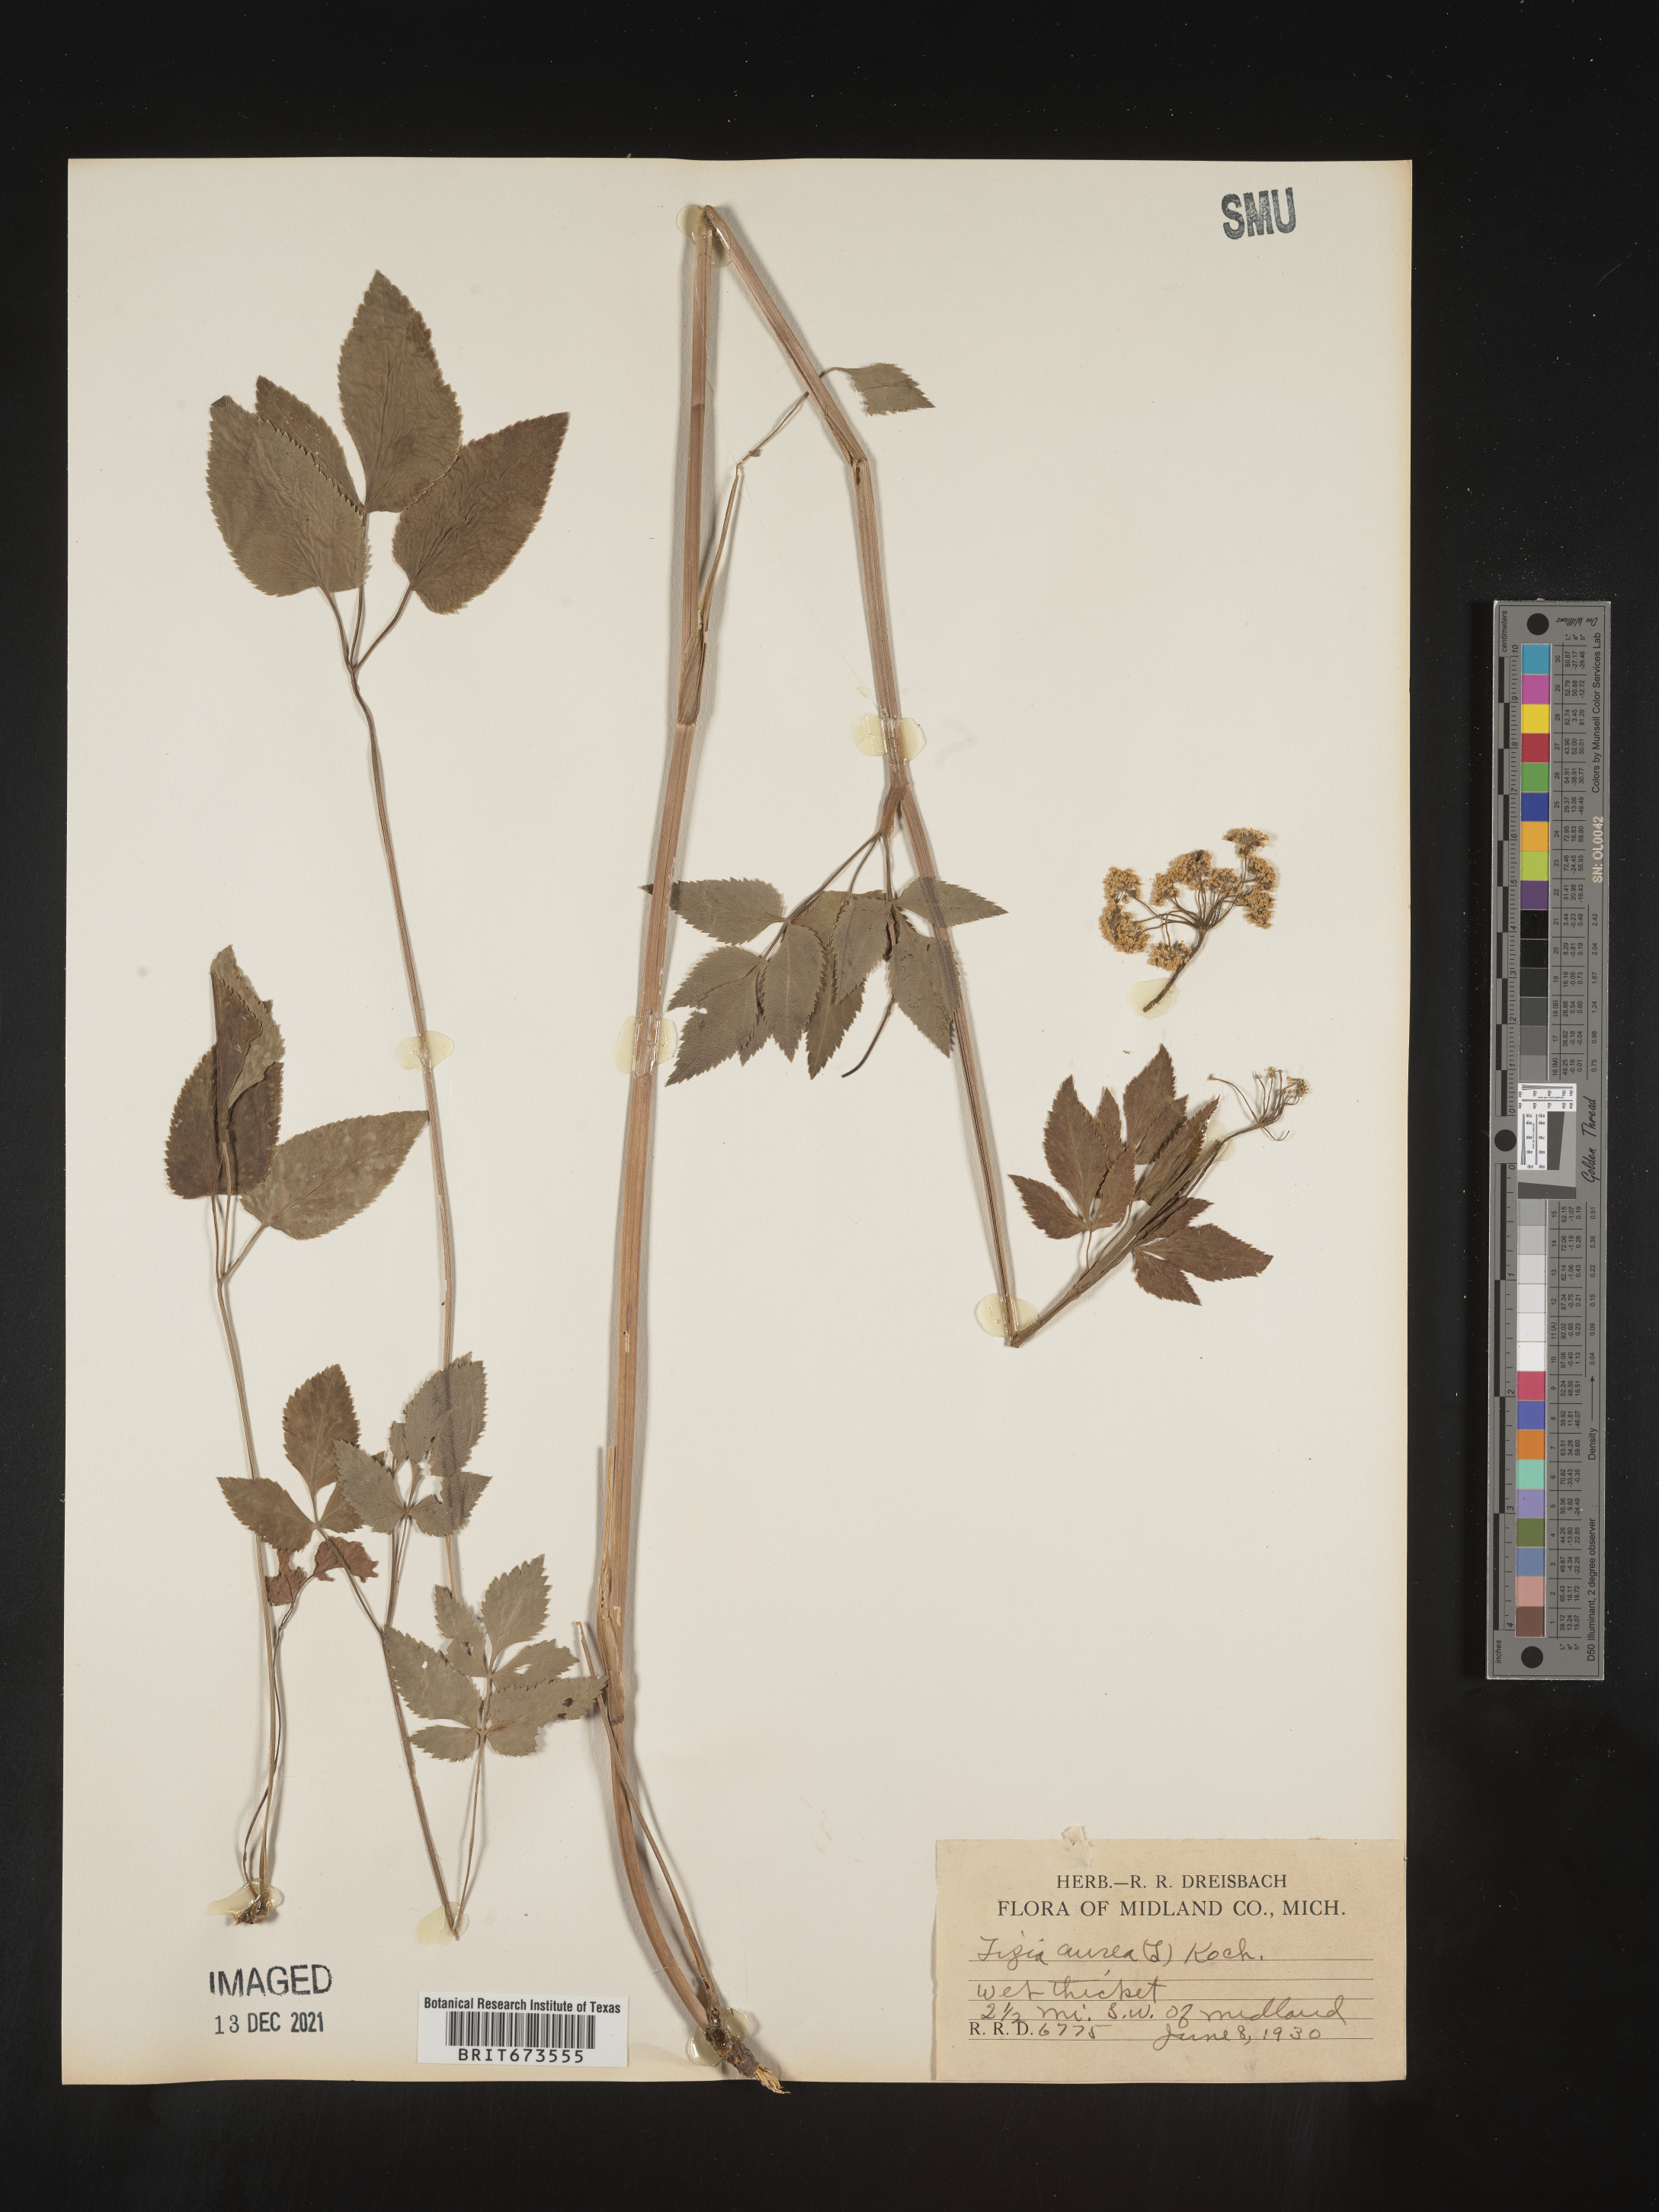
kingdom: Plantae
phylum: Tracheophyta
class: Magnoliopsida
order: Apiales
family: Apiaceae
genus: Zizia
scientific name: Zizia aurea
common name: Golden alexanders
